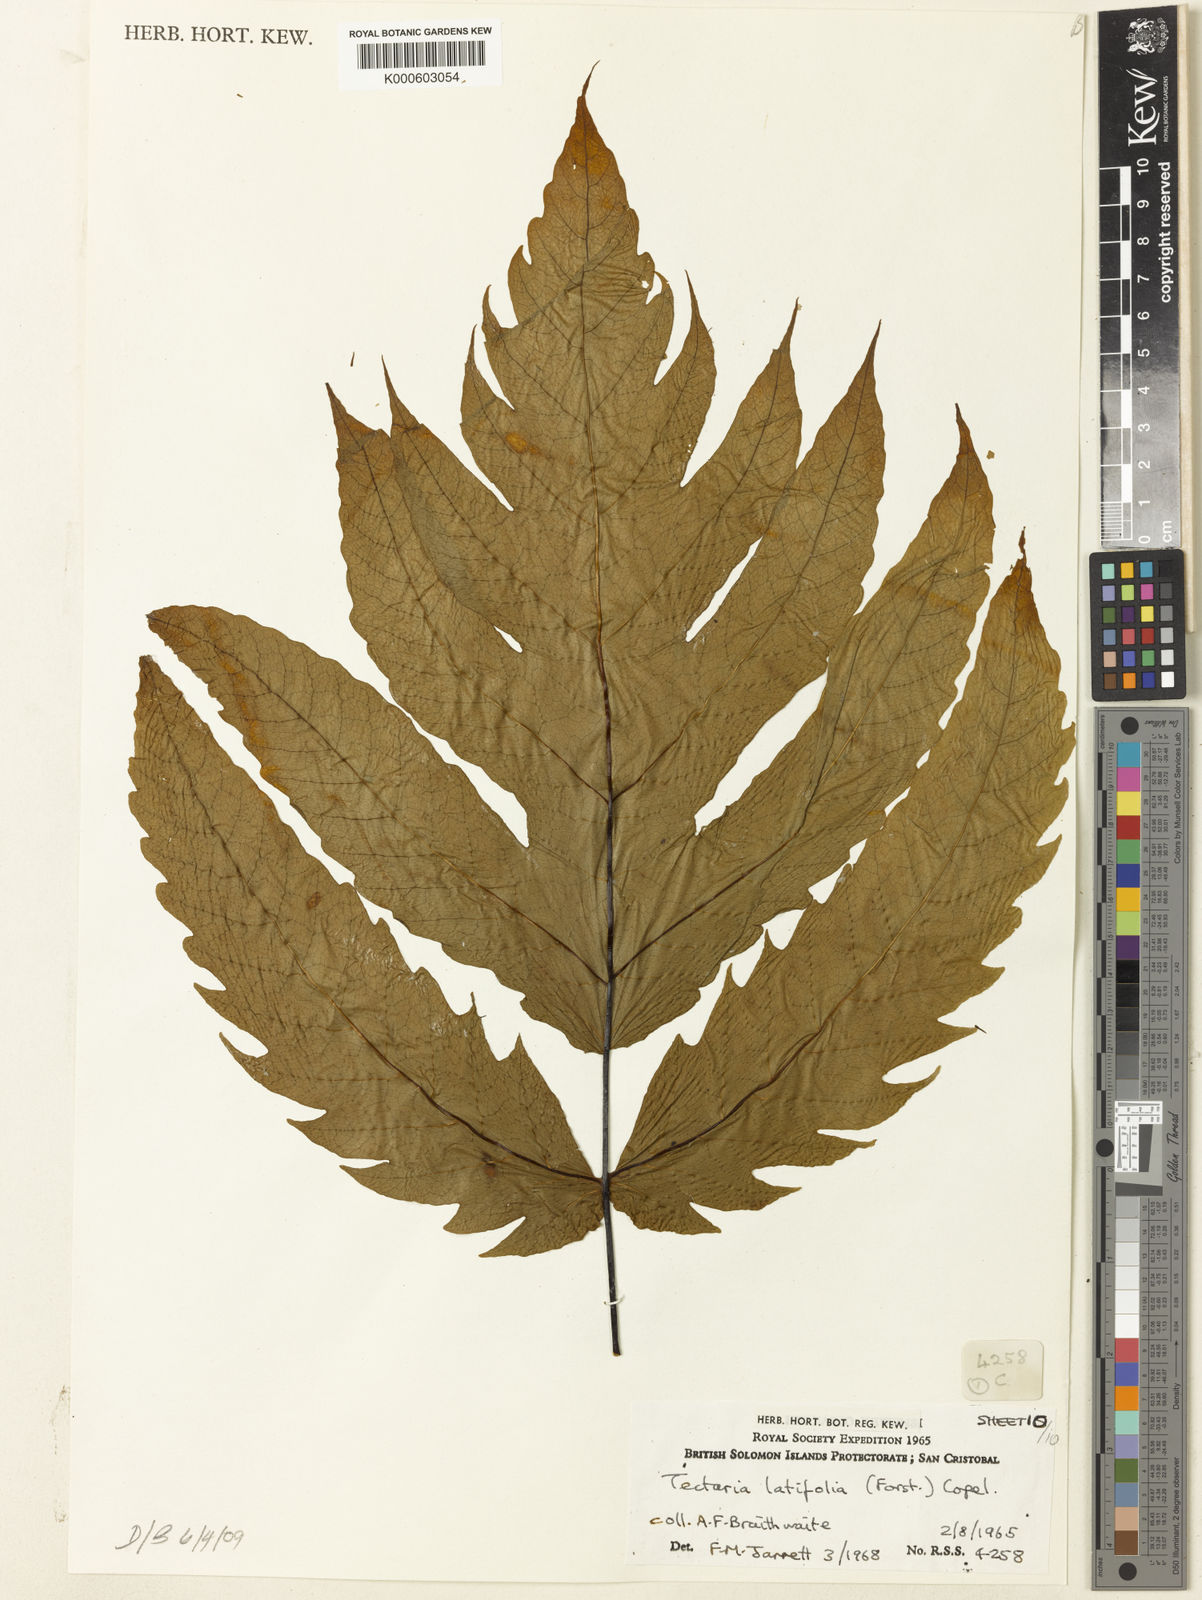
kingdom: Plantae
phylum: Tracheophyta
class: Polypodiopsida
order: Polypodiales
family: Tectariaceae
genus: Tectaria
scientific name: Tectaria
